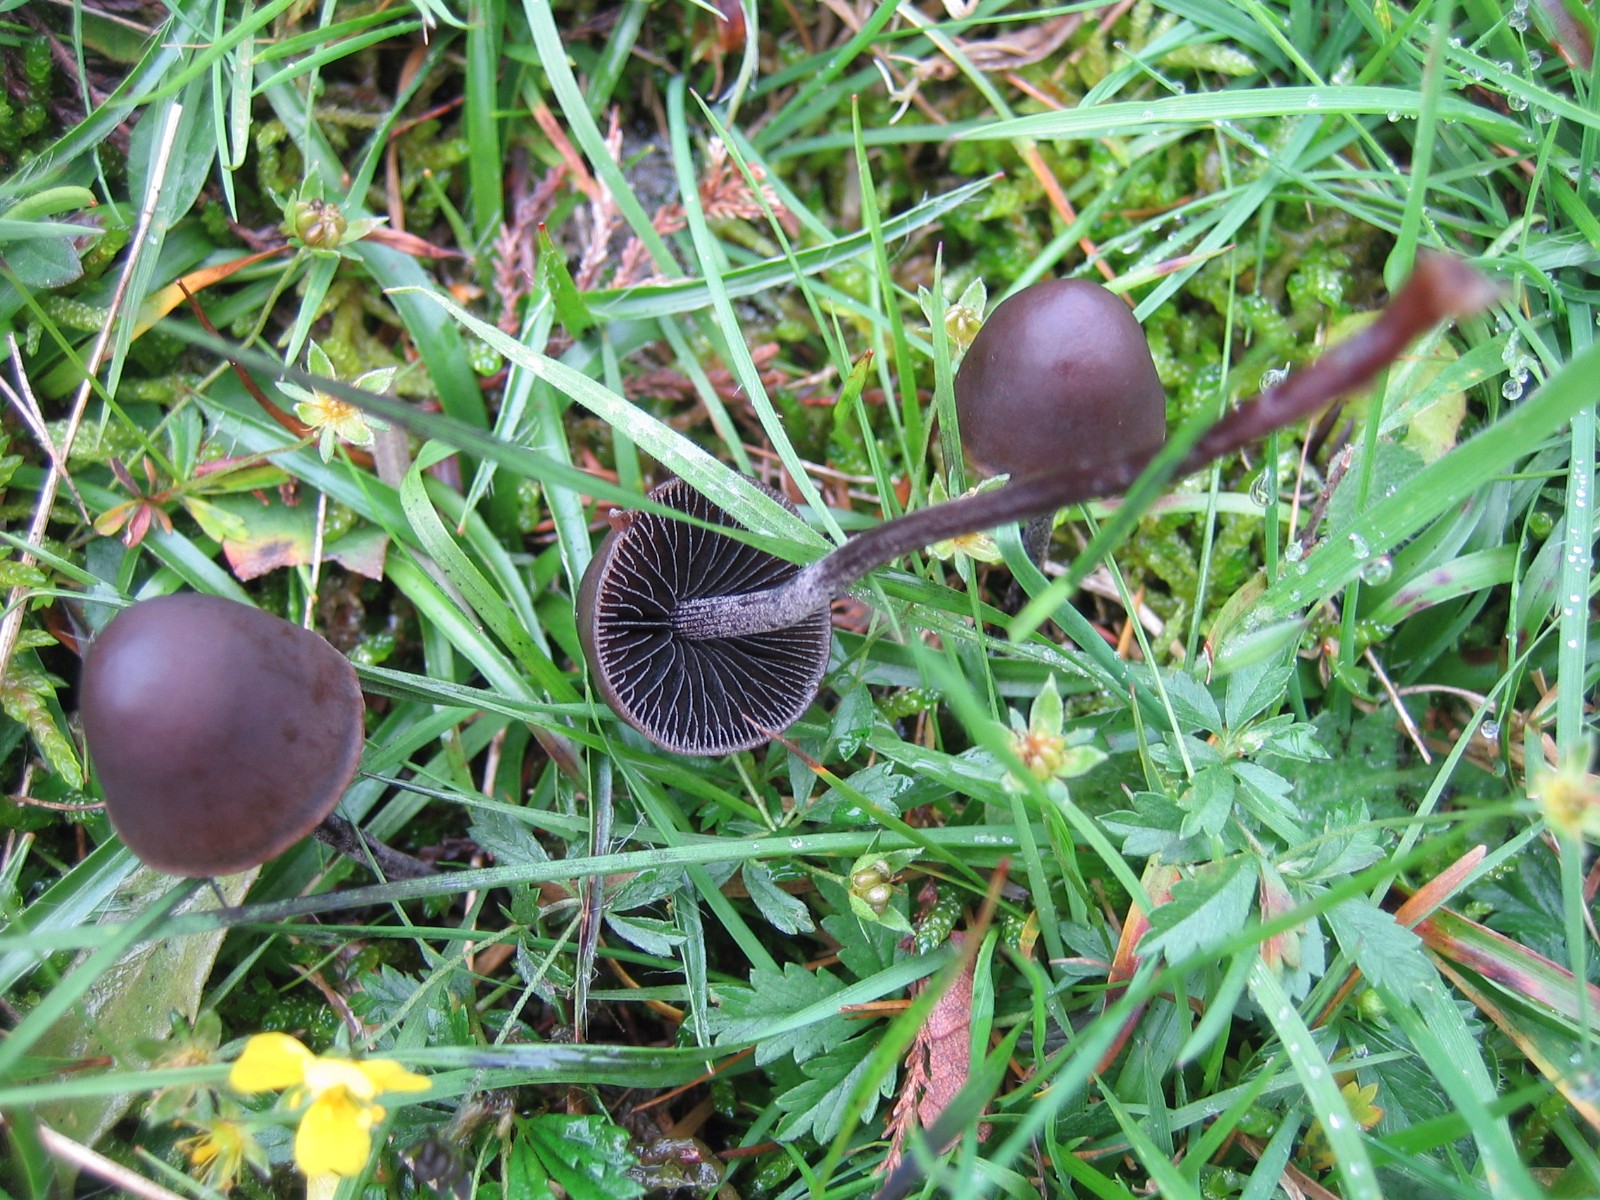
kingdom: Fungi
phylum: Basidiomycota
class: Agaricomycetes
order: Agaricales
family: Bolbitiaceae
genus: Panaeolus
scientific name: Panaeolus acuminatus
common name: høj glanshat
